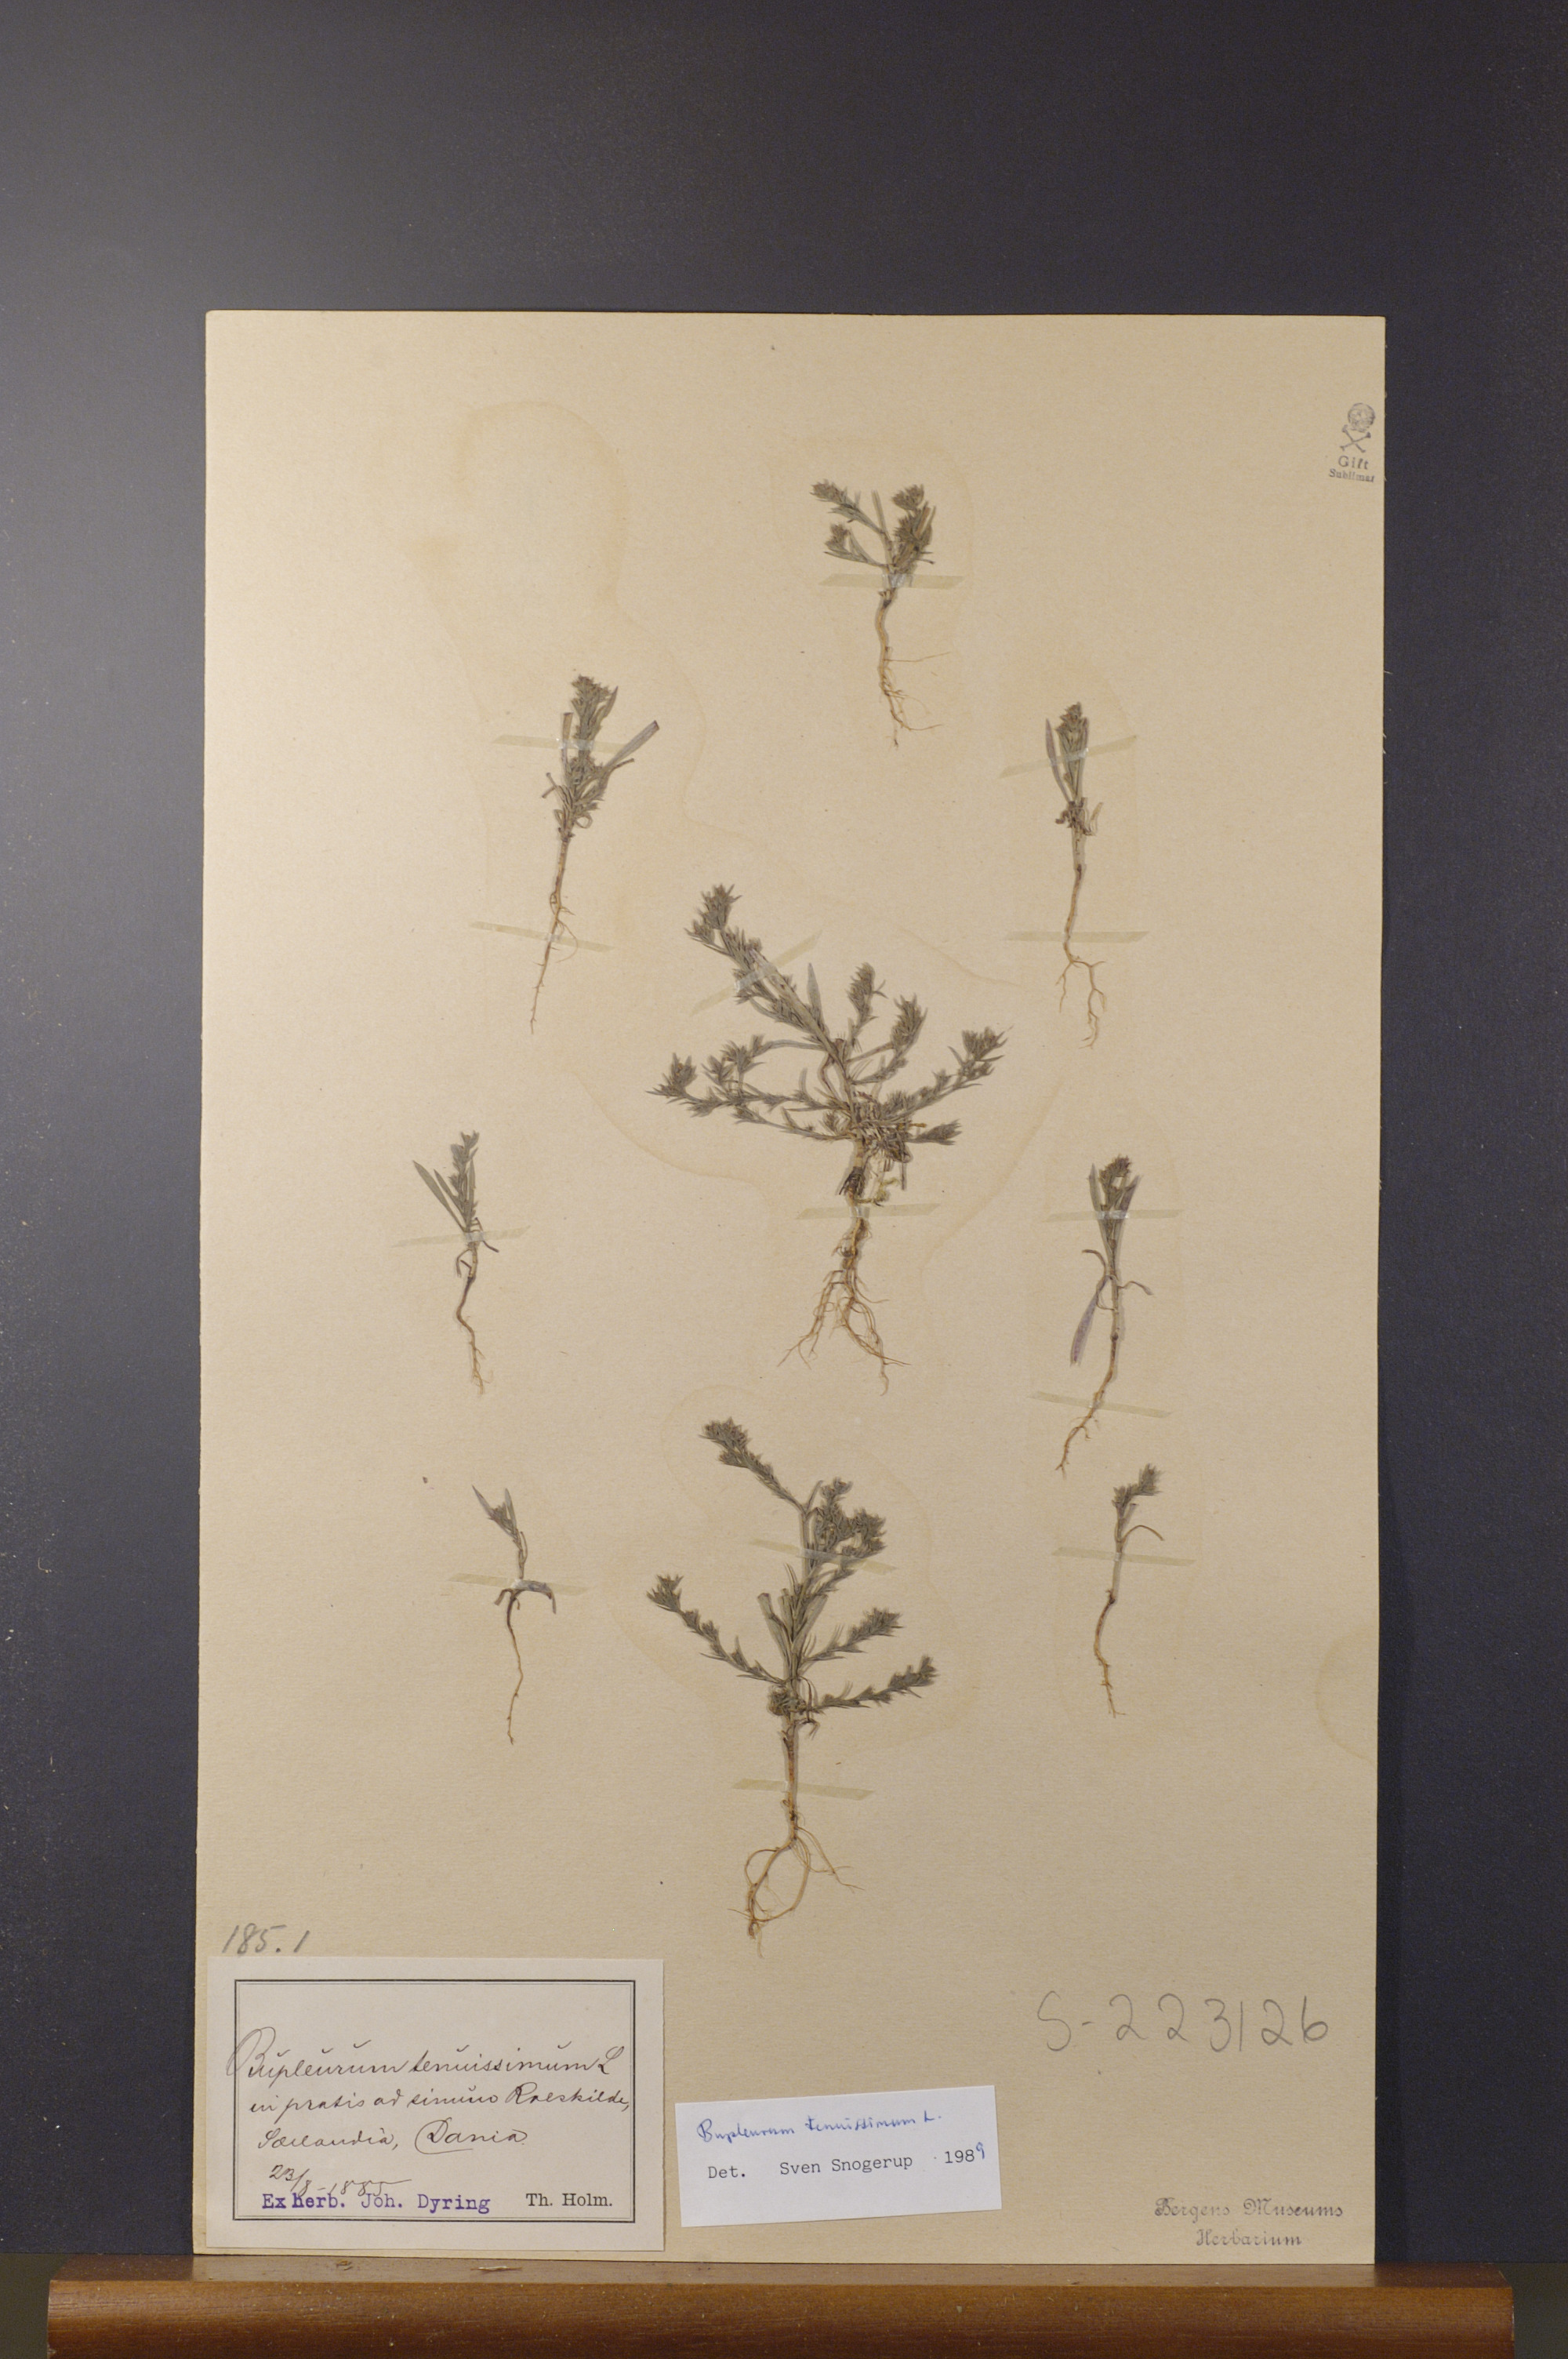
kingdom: Plantae
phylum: Tracheophyta
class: Magnoliopsida
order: Apiales
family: Apiaceae
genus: Bupleurum
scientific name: Bupleurum tenuissimum
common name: Slender hare's-ear
